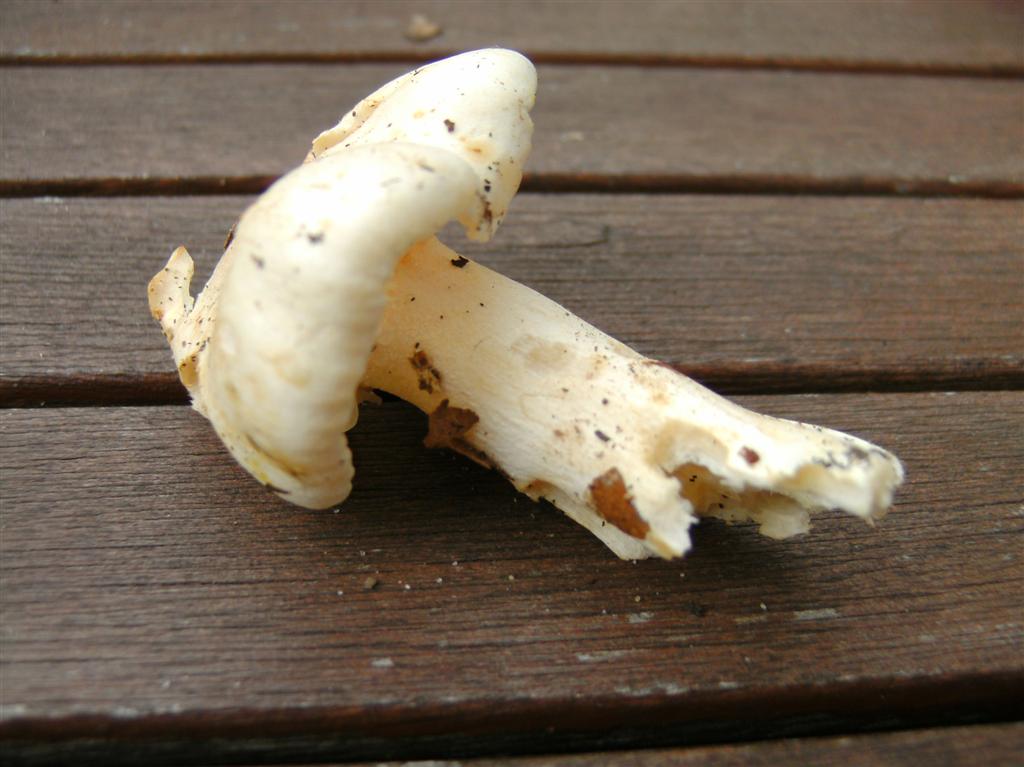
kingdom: Fungi
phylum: Basidiomycota
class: Agaricomycetes
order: Agaricales
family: Hygrophoraceae
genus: Hygrophorus
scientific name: Hygrophorus penarius
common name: spiselig sneglehat
